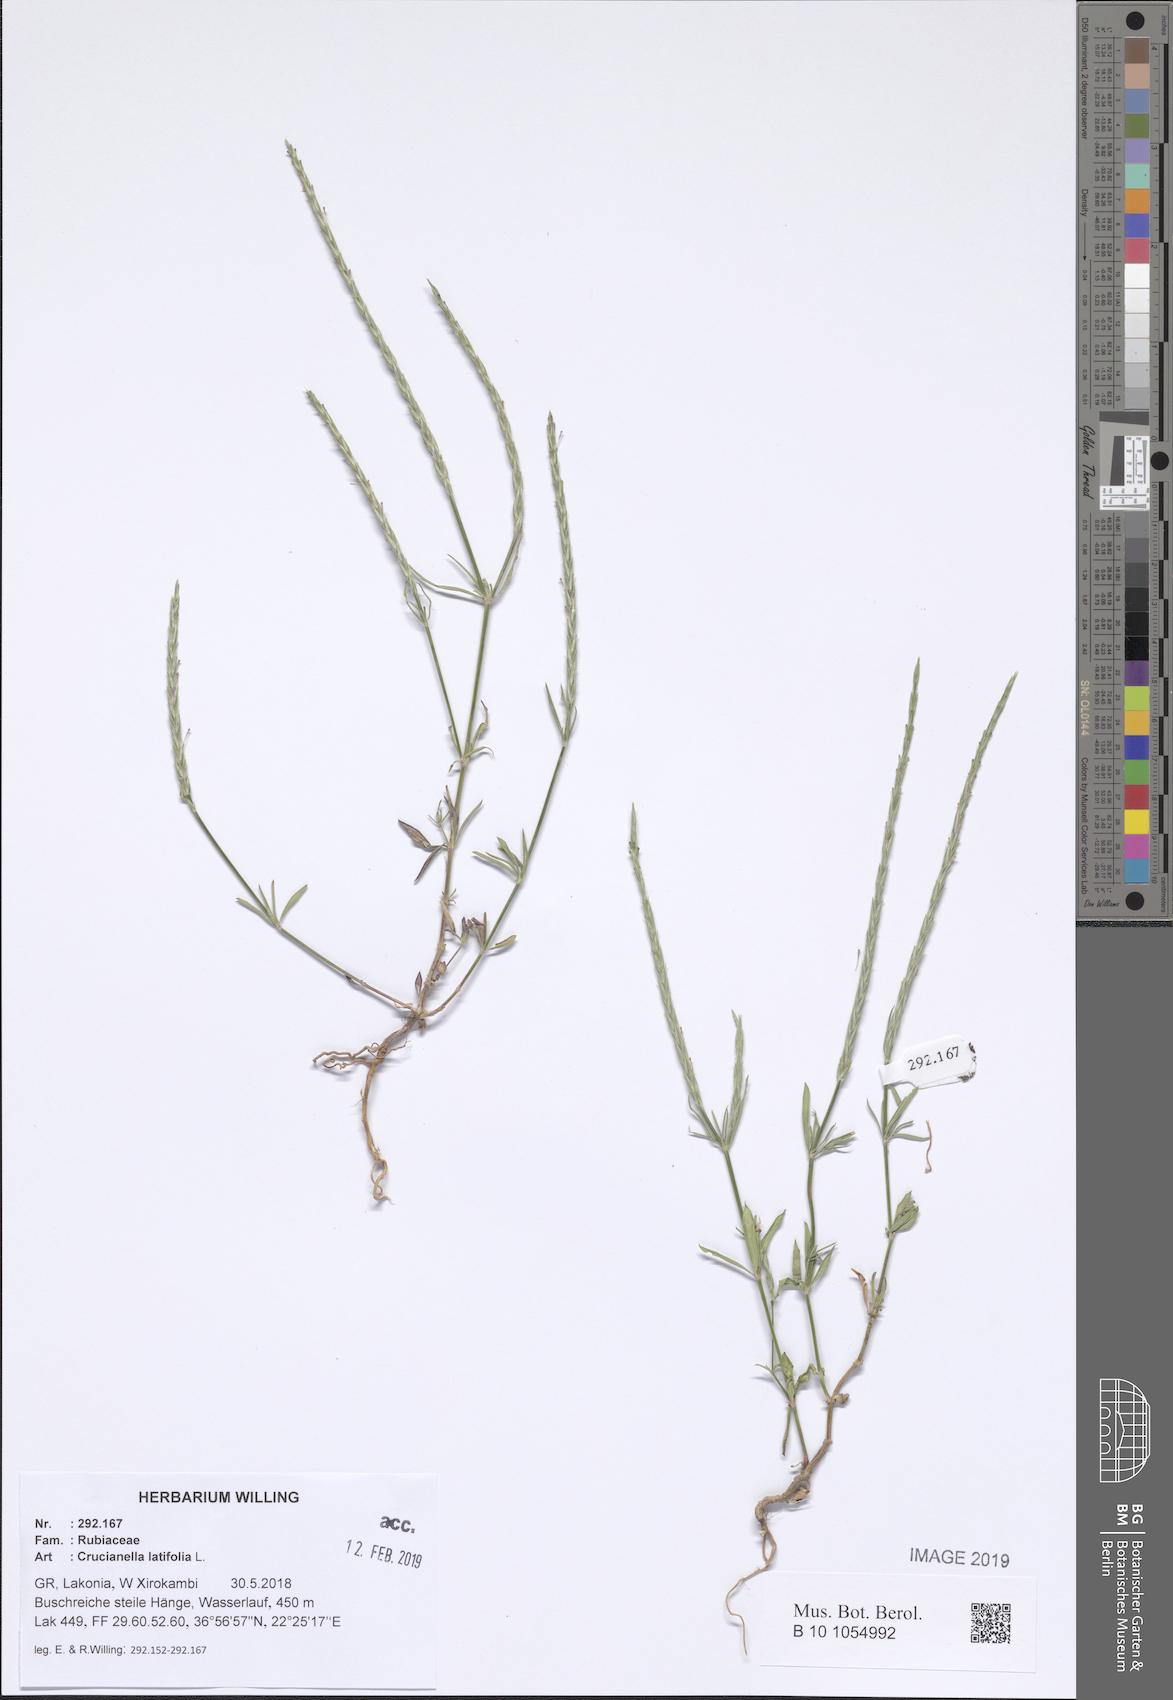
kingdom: Plantae
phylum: Tracheophyta
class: Magnoliopsida
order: Gentianales
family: Rubiaceae
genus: Crucianella
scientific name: Crucianella latifolia
